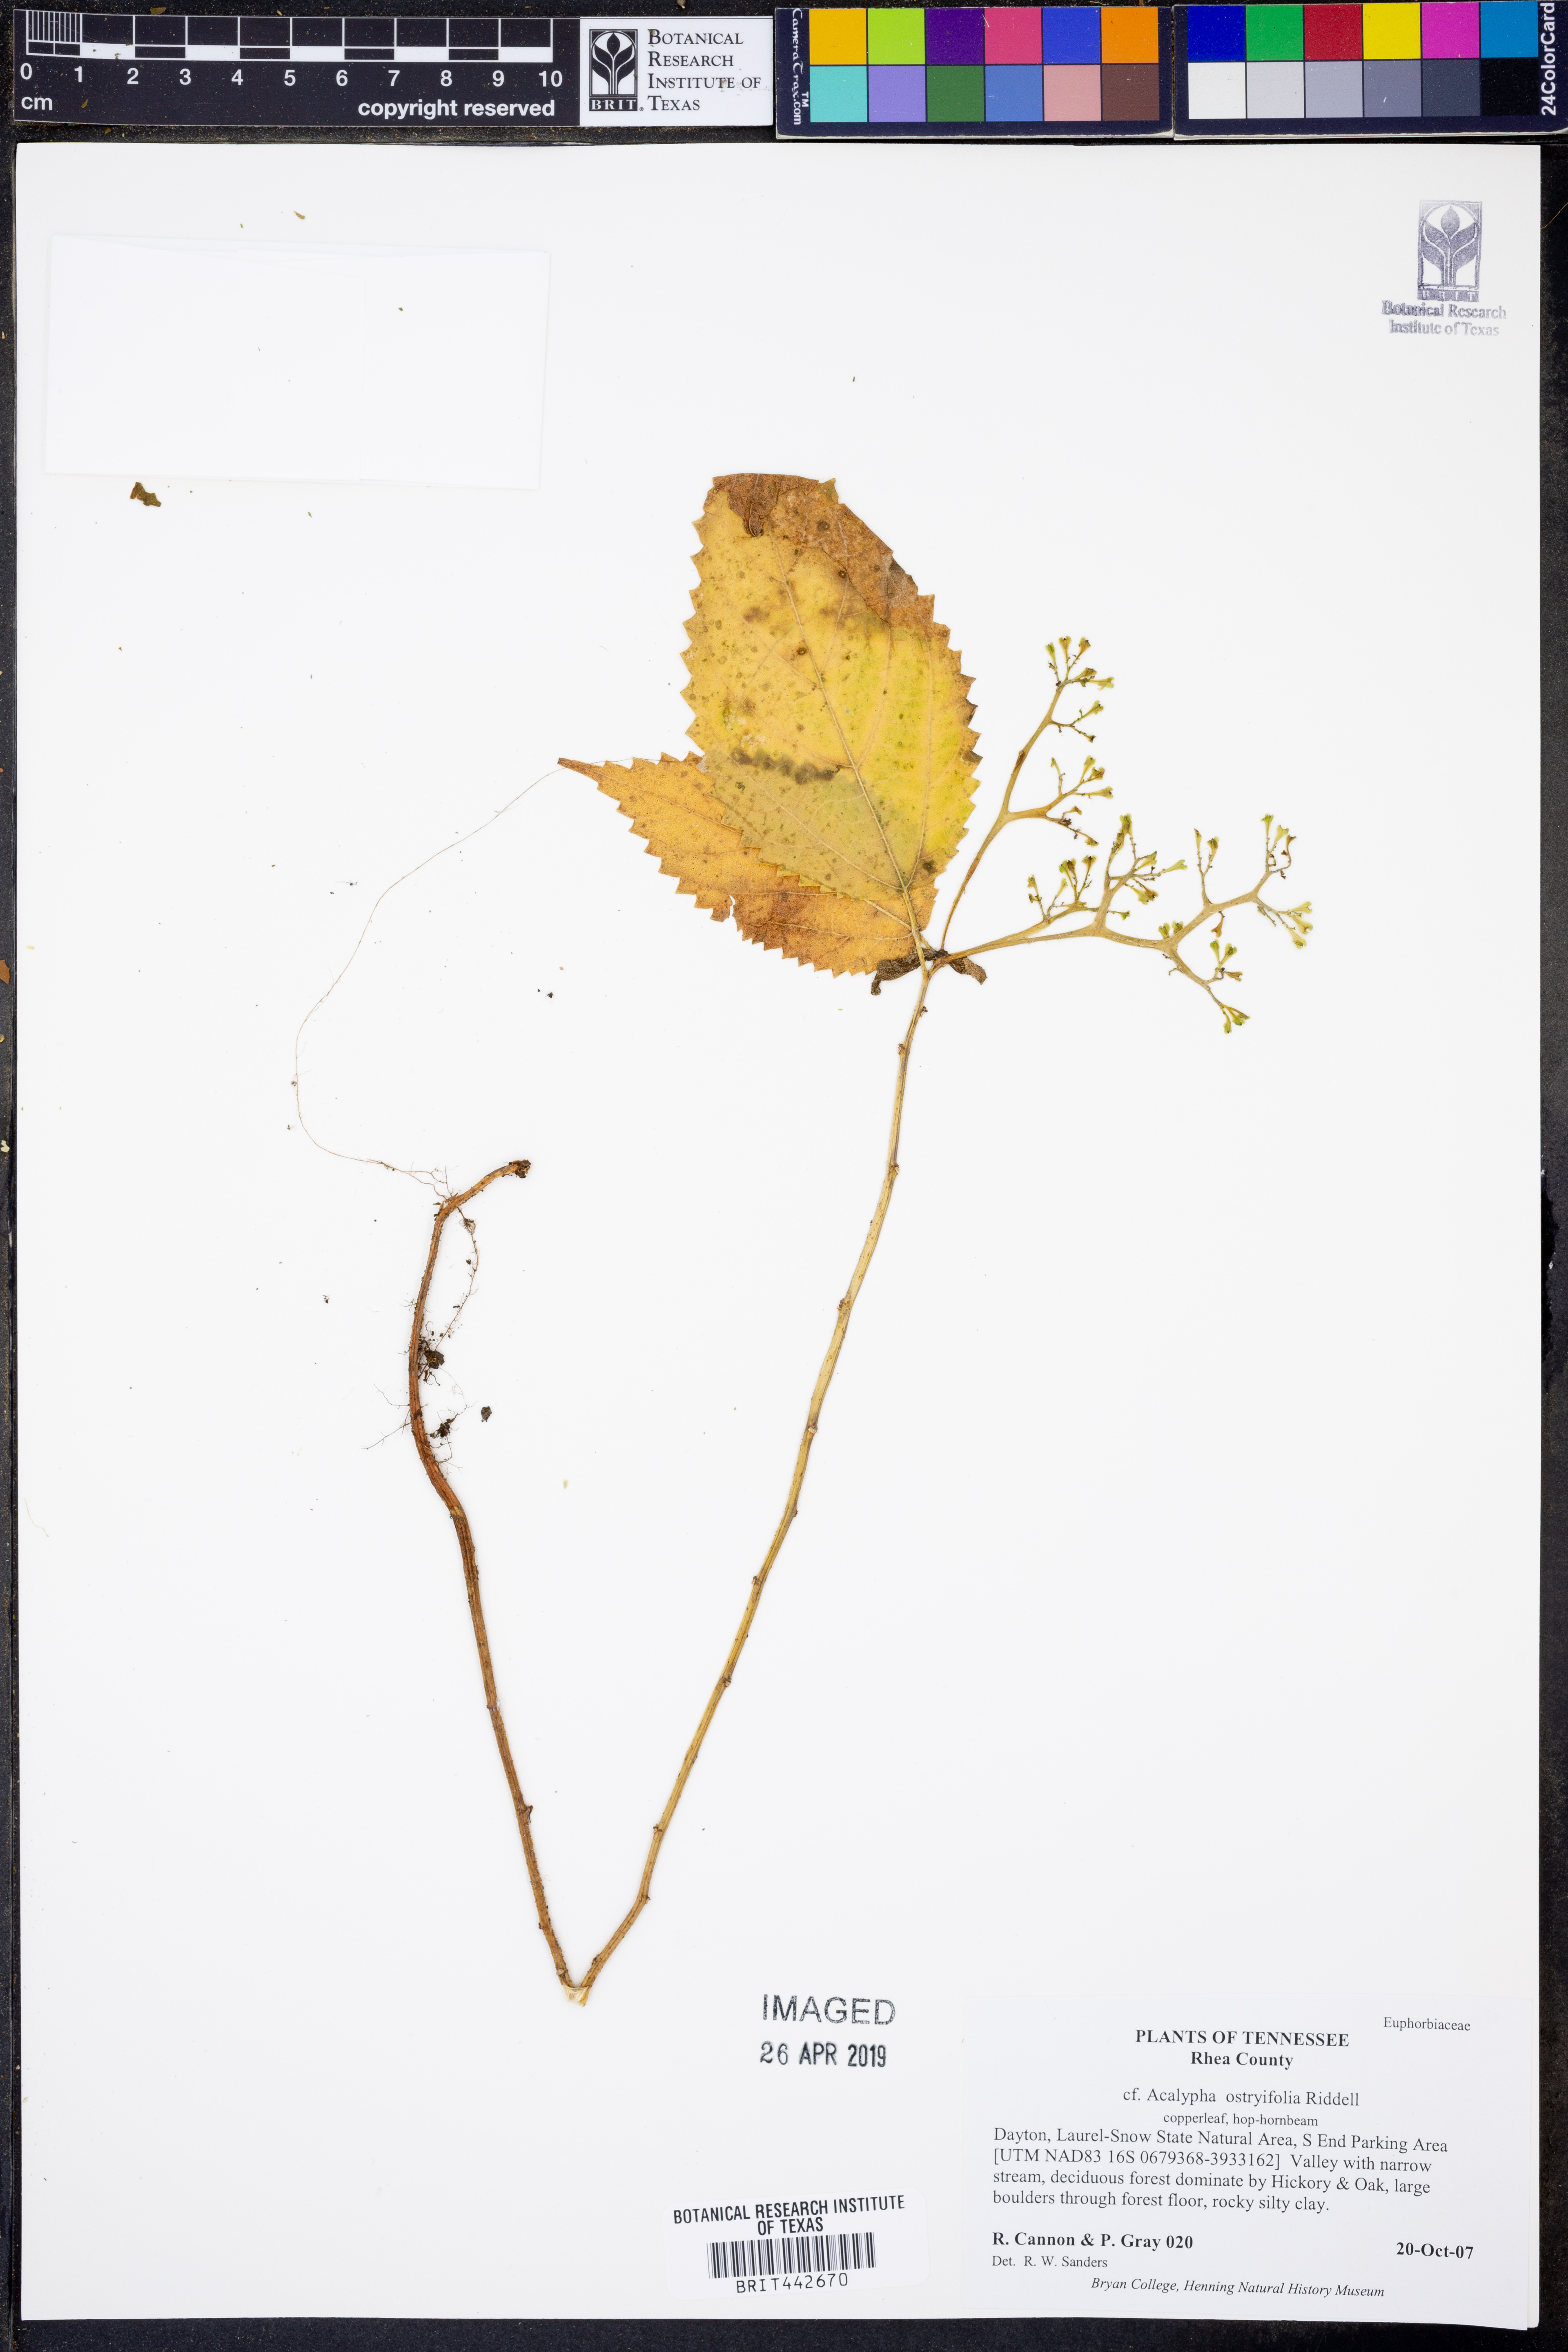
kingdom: Plantae
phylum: Tracheophyta
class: Magnoliopsida
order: Malpighiales
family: Euphorbiaceae
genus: Acalypha
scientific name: Acalypha persimilis
